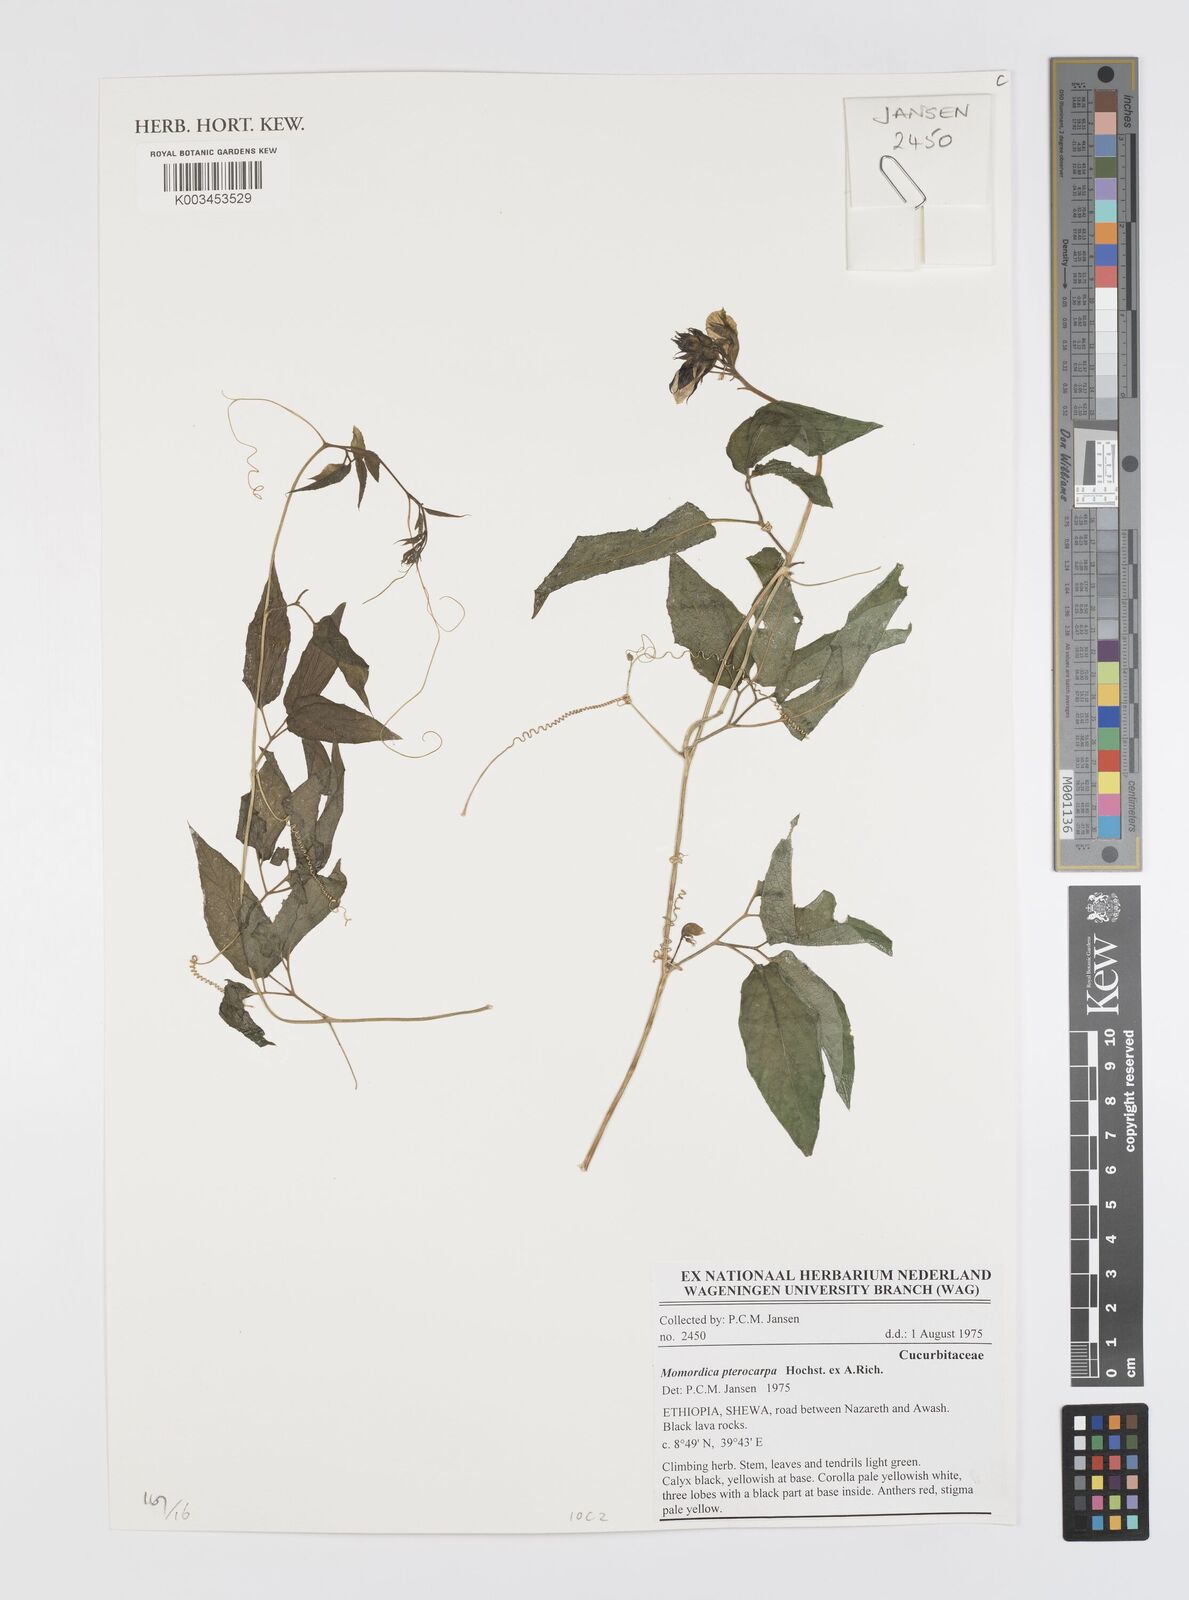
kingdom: Plantae
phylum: Tracheophyta
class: Magnoliopsida
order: Cucurbitales
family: Cucurbitaceae
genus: Momordica
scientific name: Momordica pterocarpa
